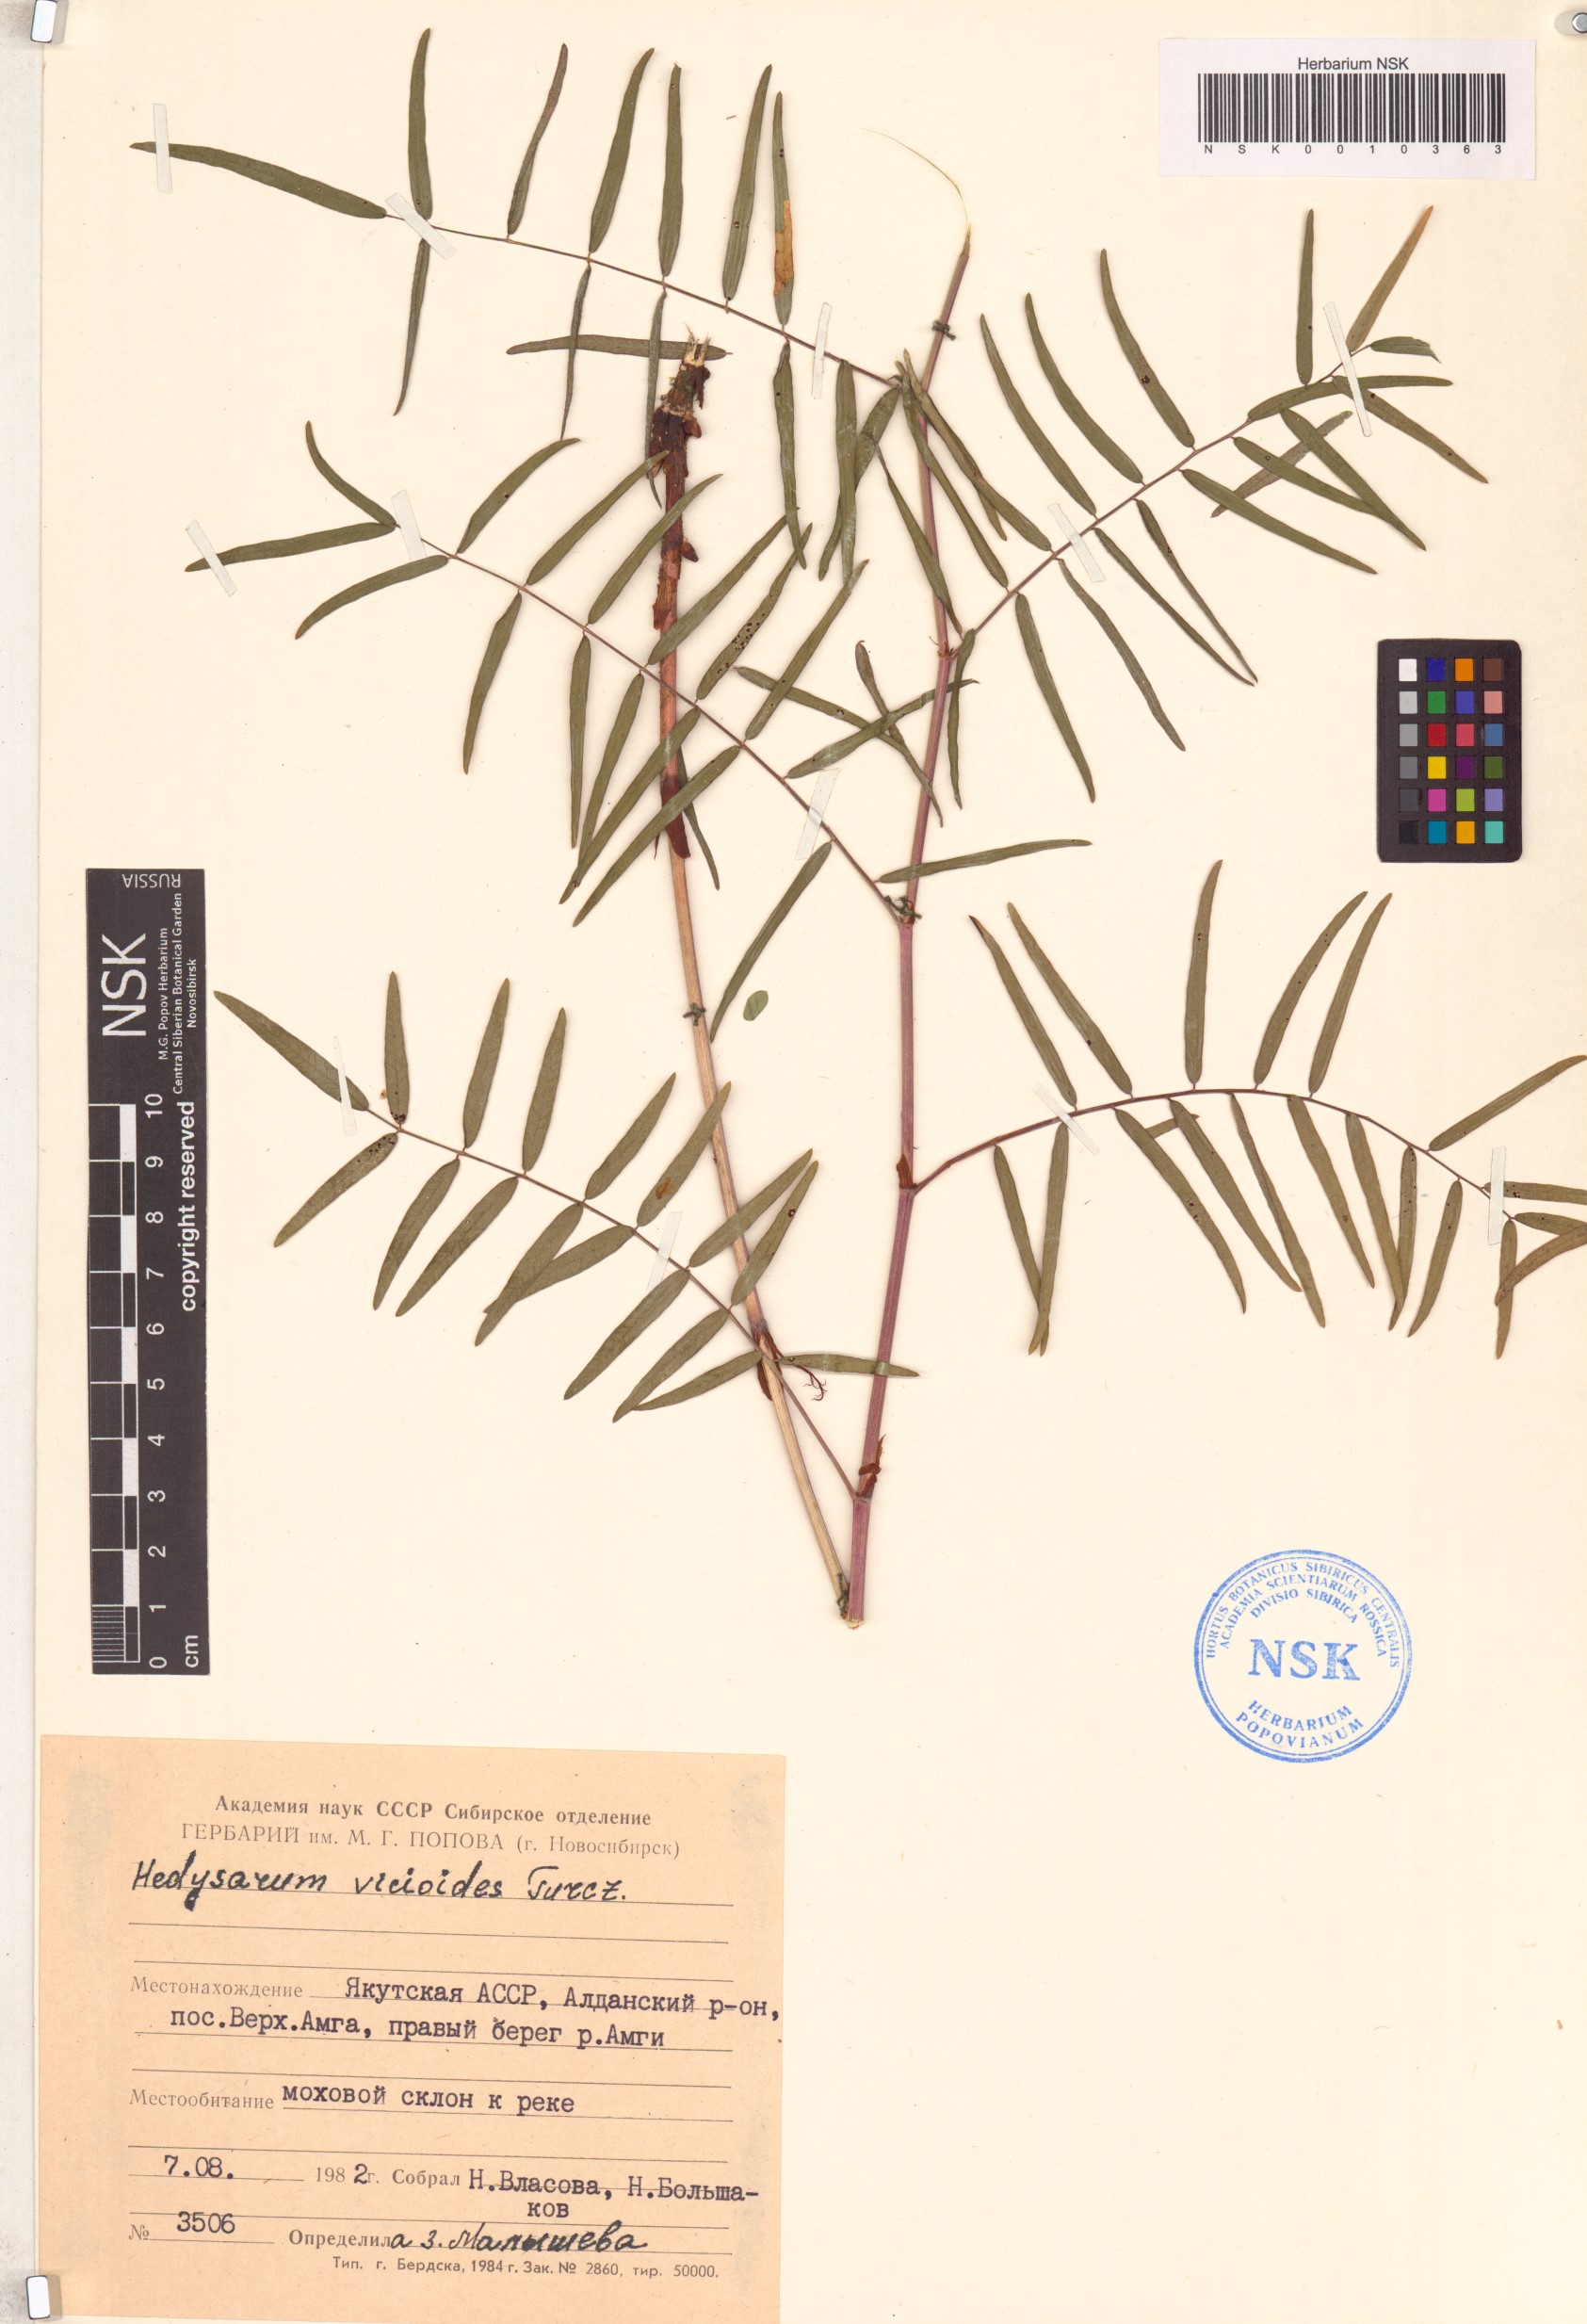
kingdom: Plantae
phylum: Tracheophyta
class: Magnoliopsida
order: Fabales
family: Fabaceae
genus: Hedysarum
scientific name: Hedysarum vicioides
